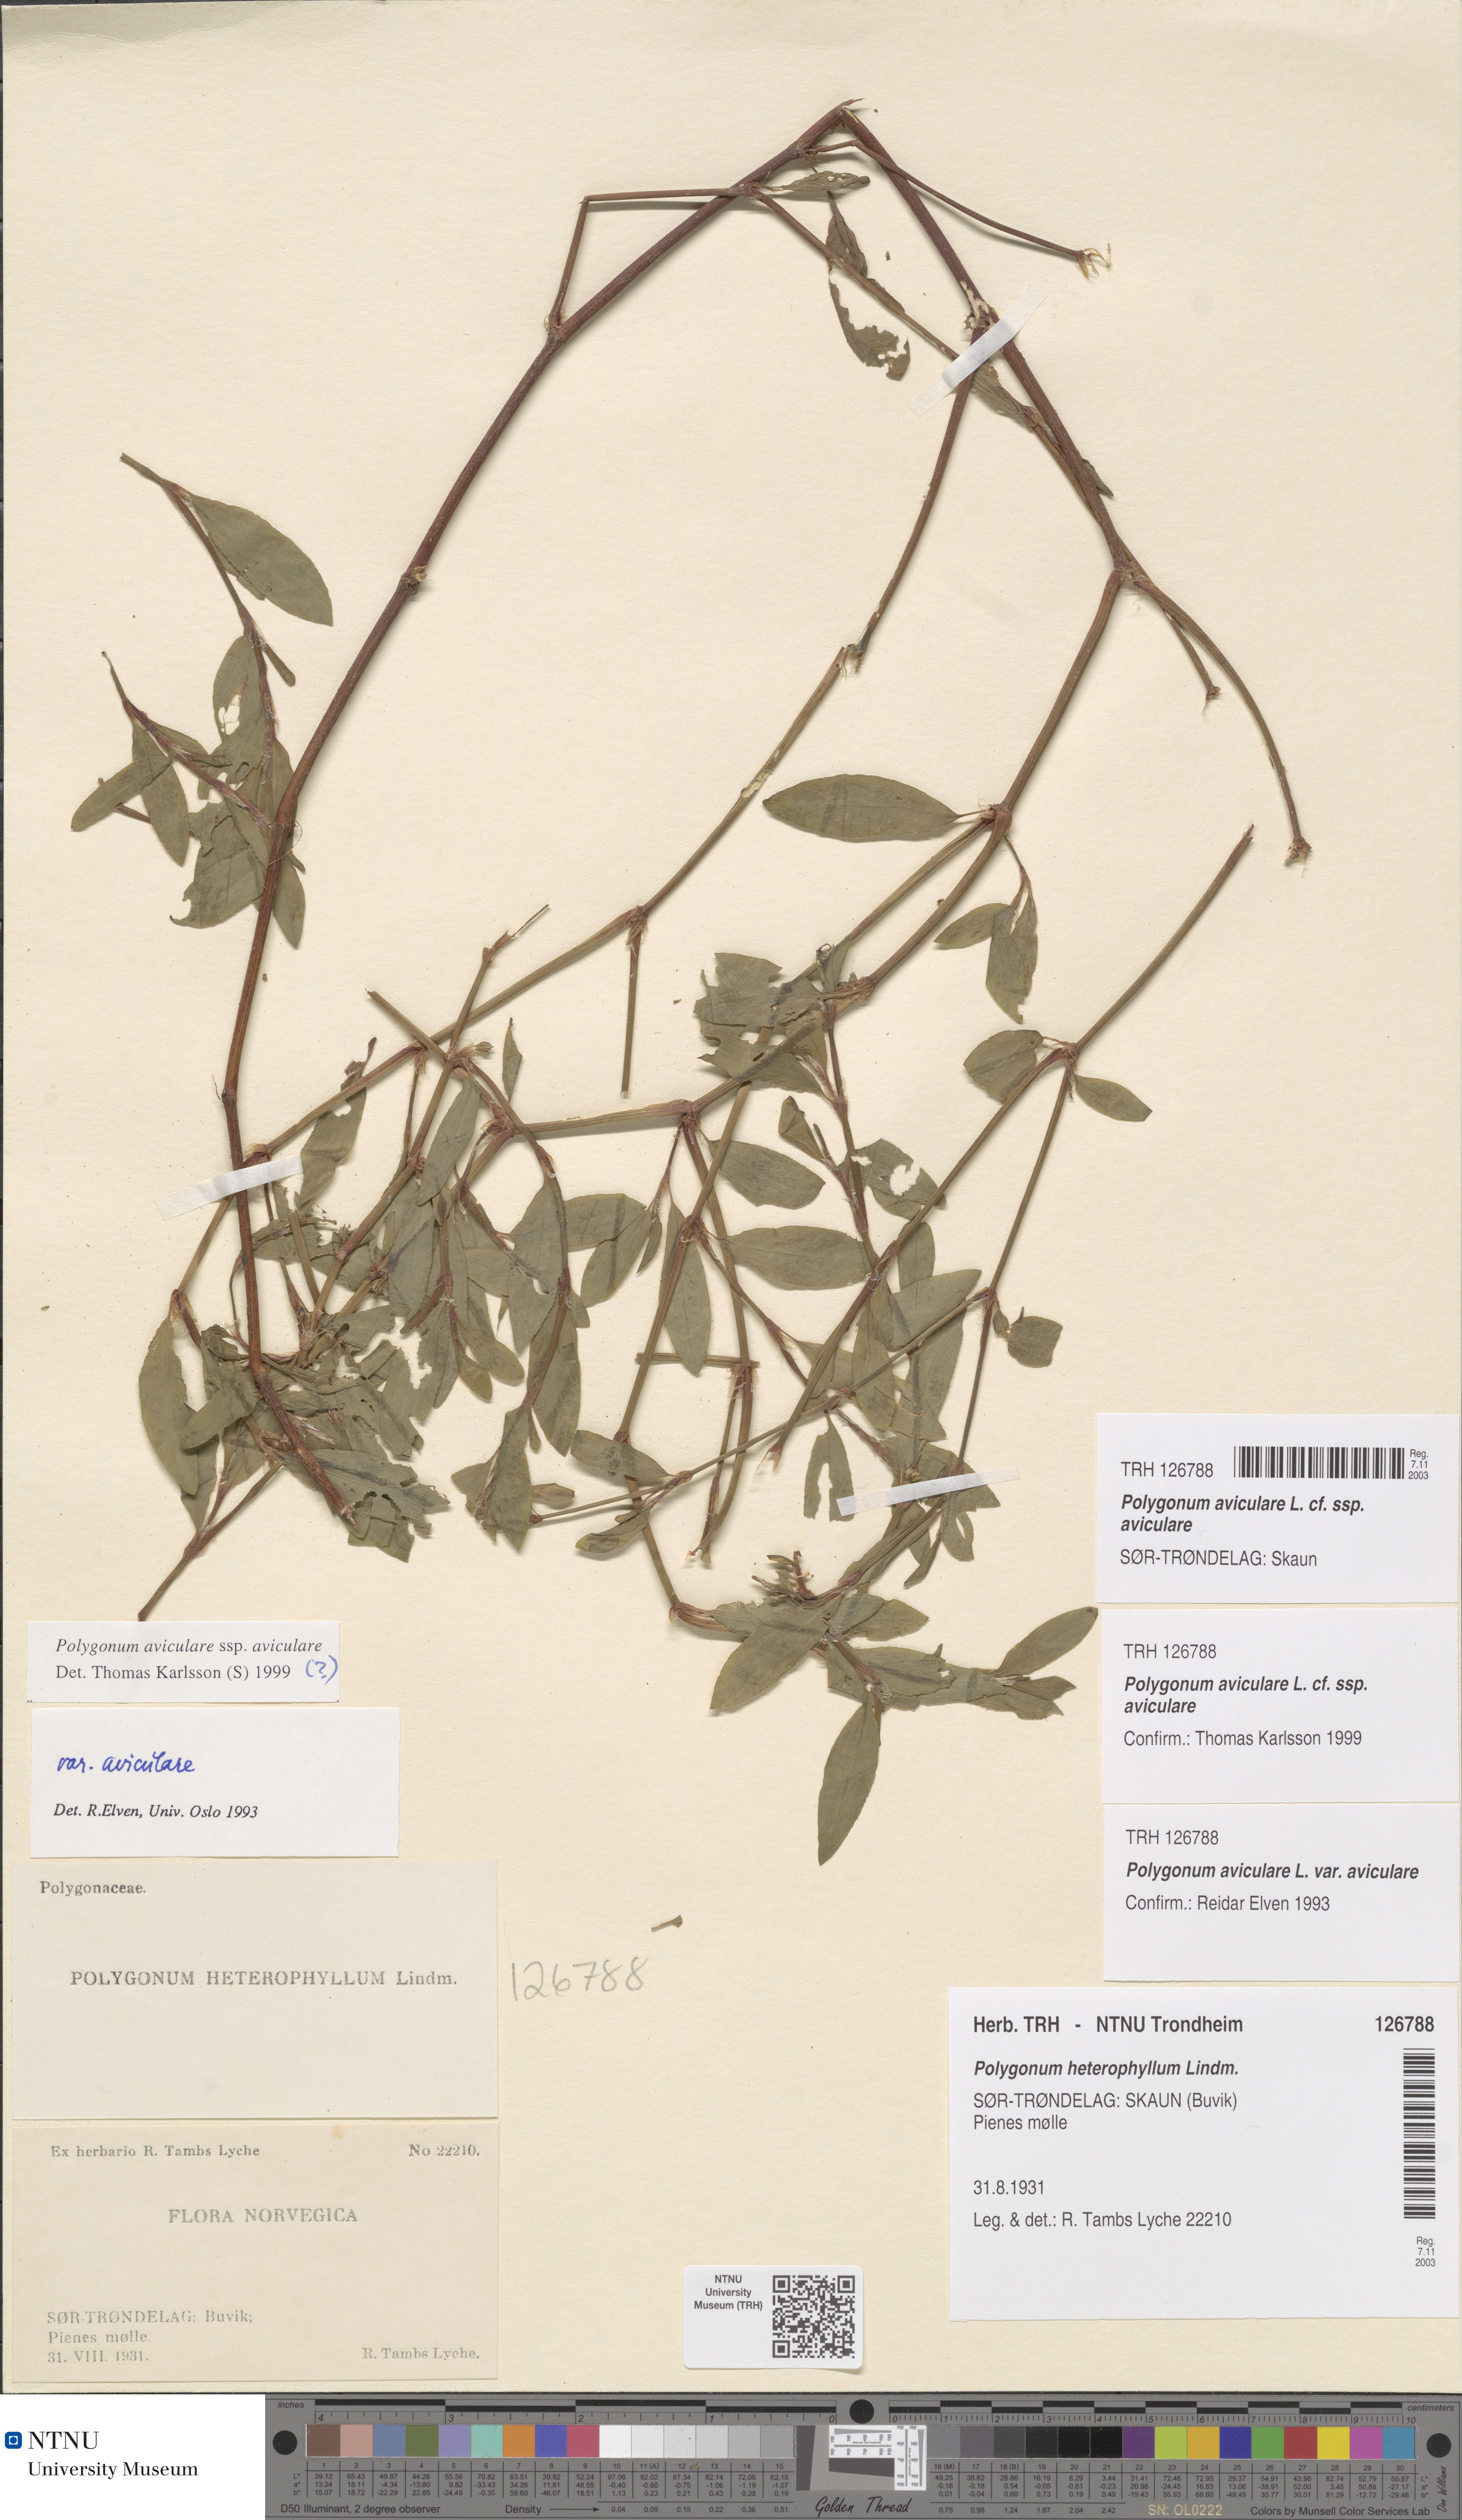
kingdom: Plantae
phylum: Tracheophyta
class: Magnoliopsida
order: Caryophyllales
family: Polygonaceae
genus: Polygonum
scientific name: Polygonum aviculare
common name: Prostrate knotweed
